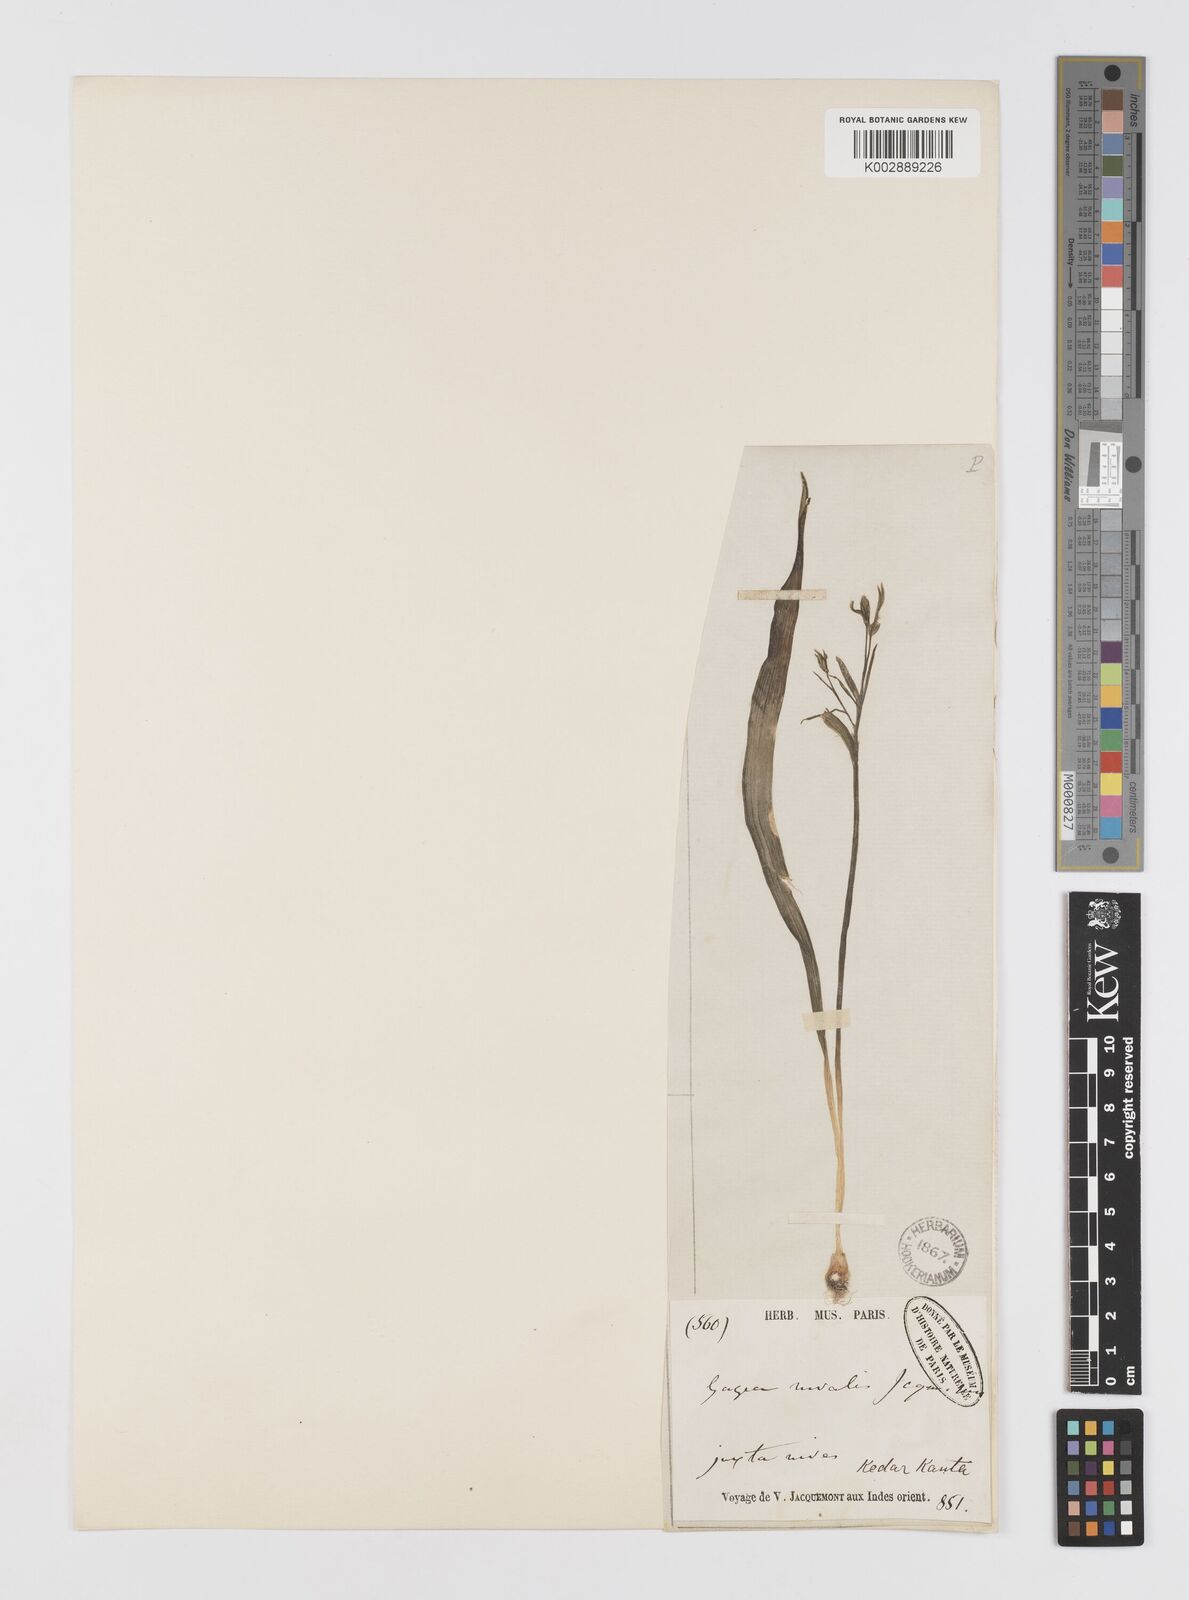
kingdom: Plantae
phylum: Tracheophyta
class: Liliopsida
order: Liliales
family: Liliaceae
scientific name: Liliaceae
